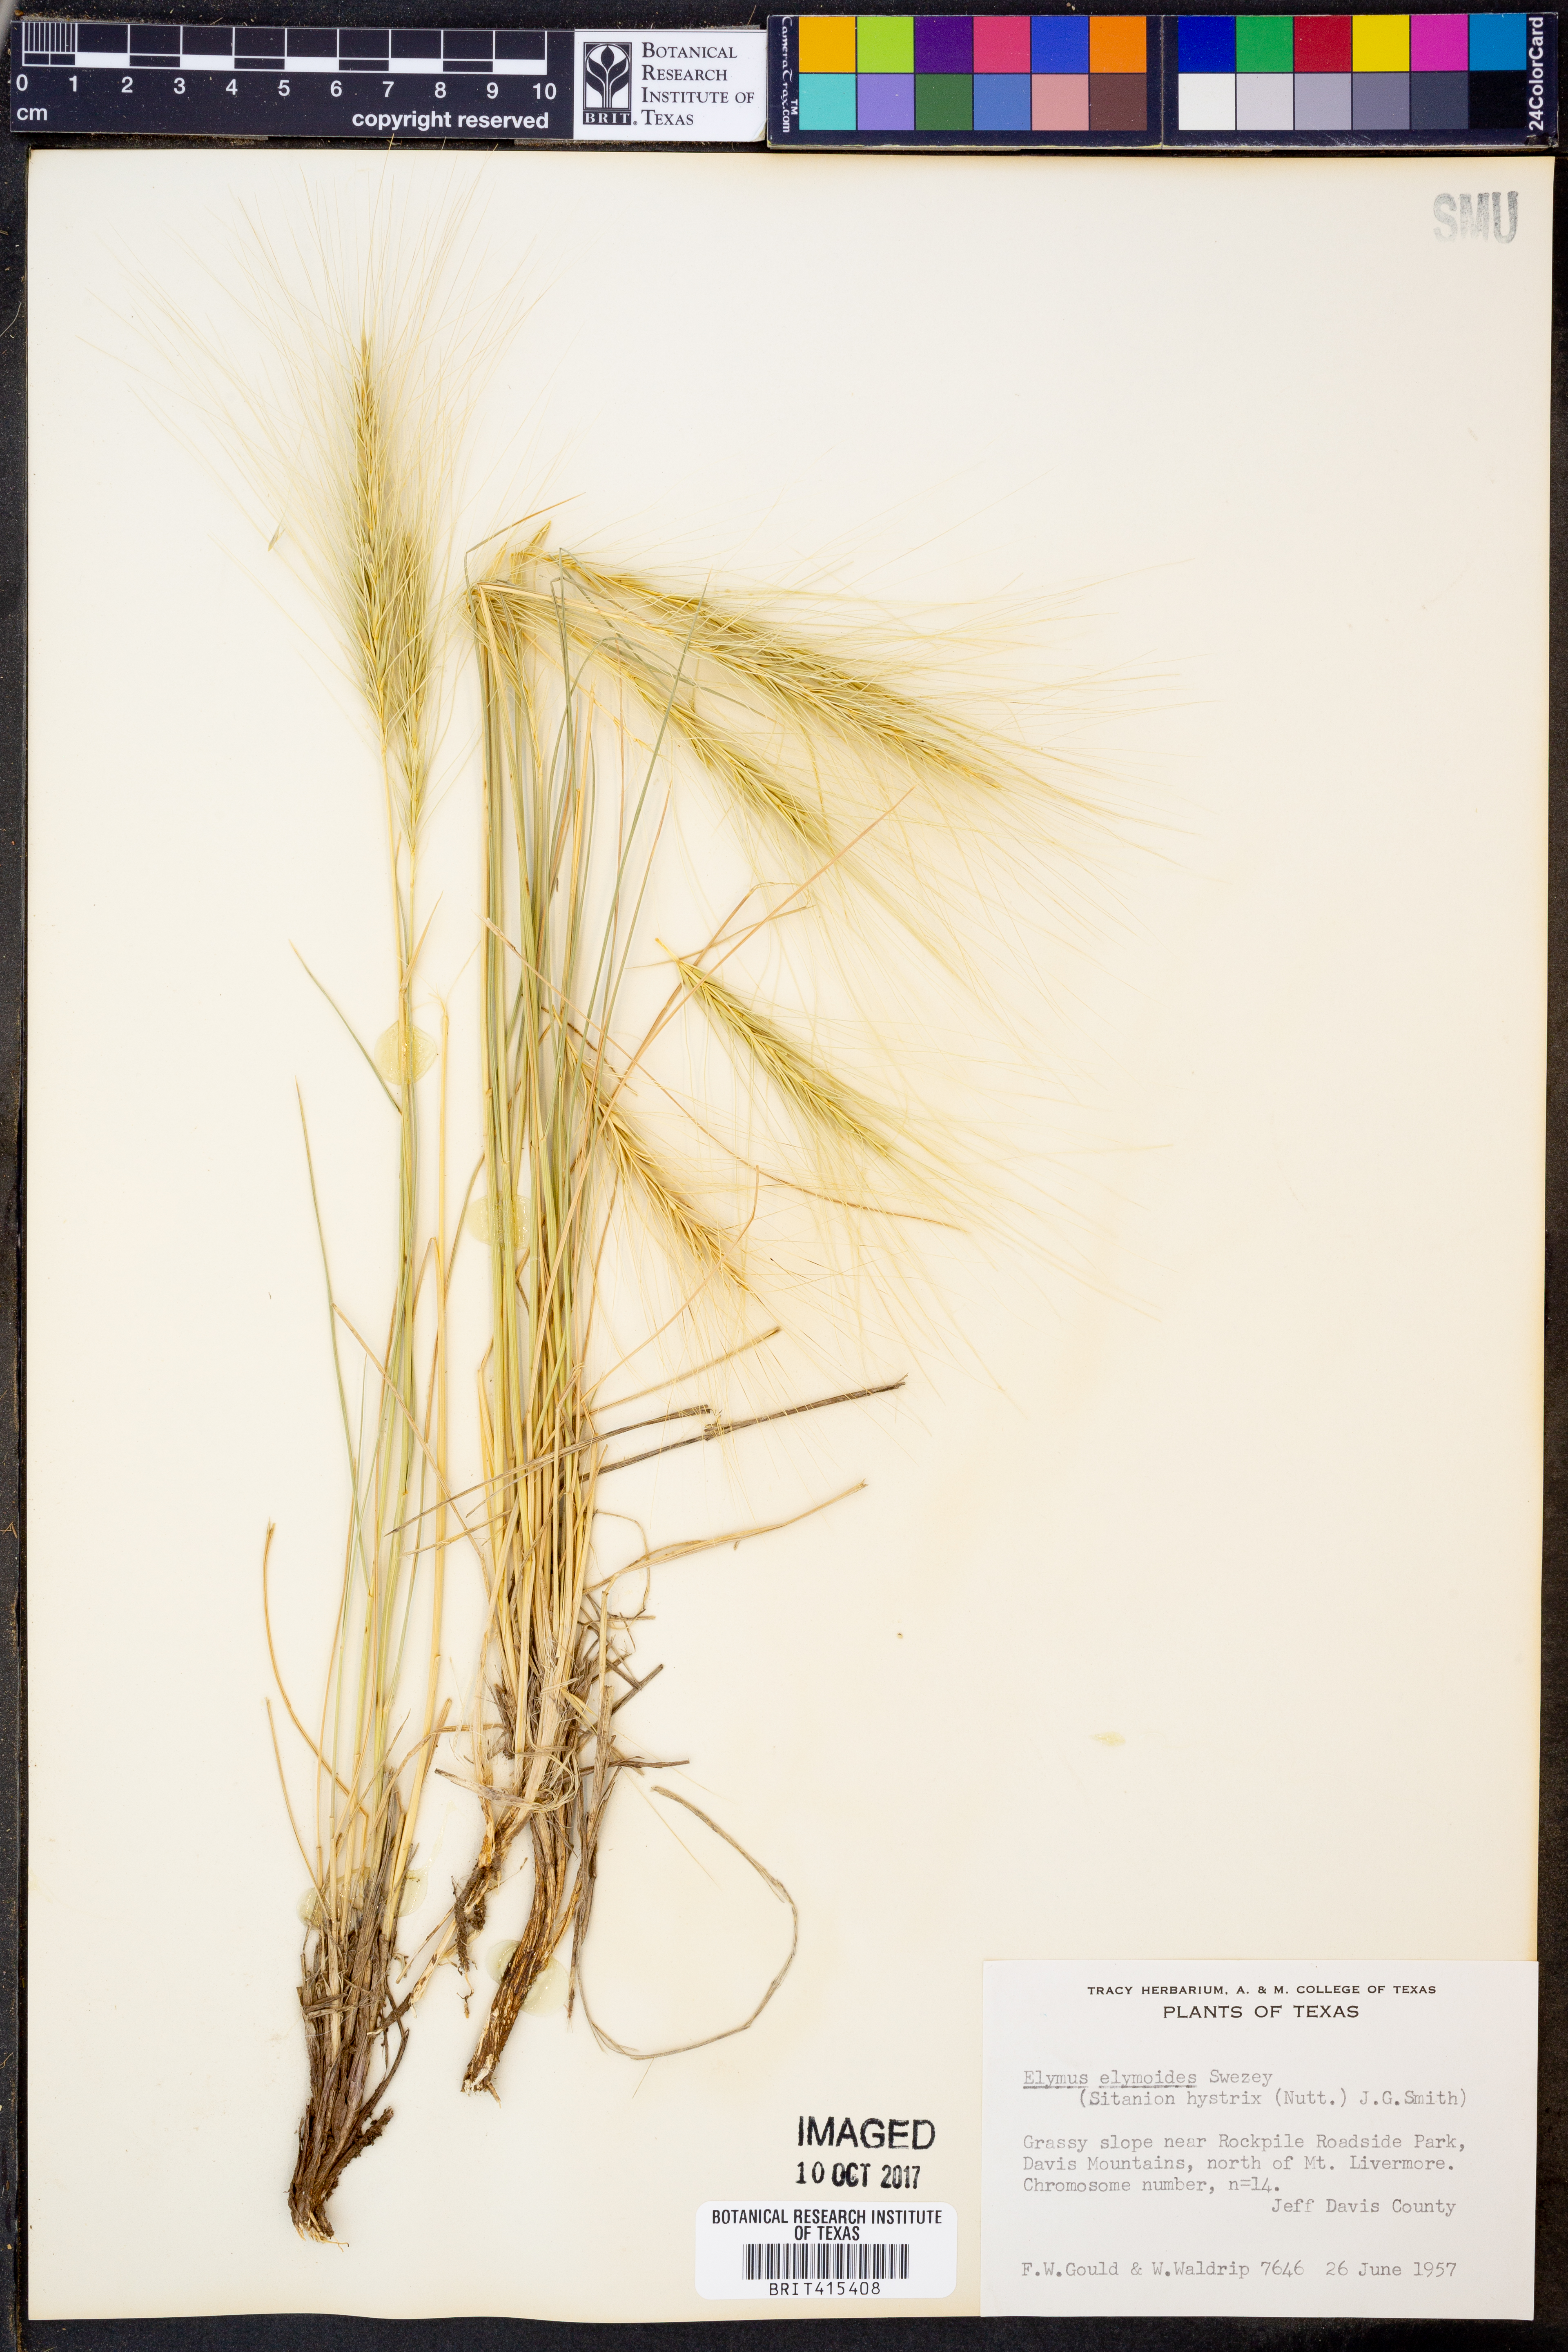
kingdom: Plantae
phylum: Tracheophyta
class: Liliopsida
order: Poales
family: Poaceae
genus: Elymus
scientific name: Elymus elymoides
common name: Bottlebrush squirreltail
